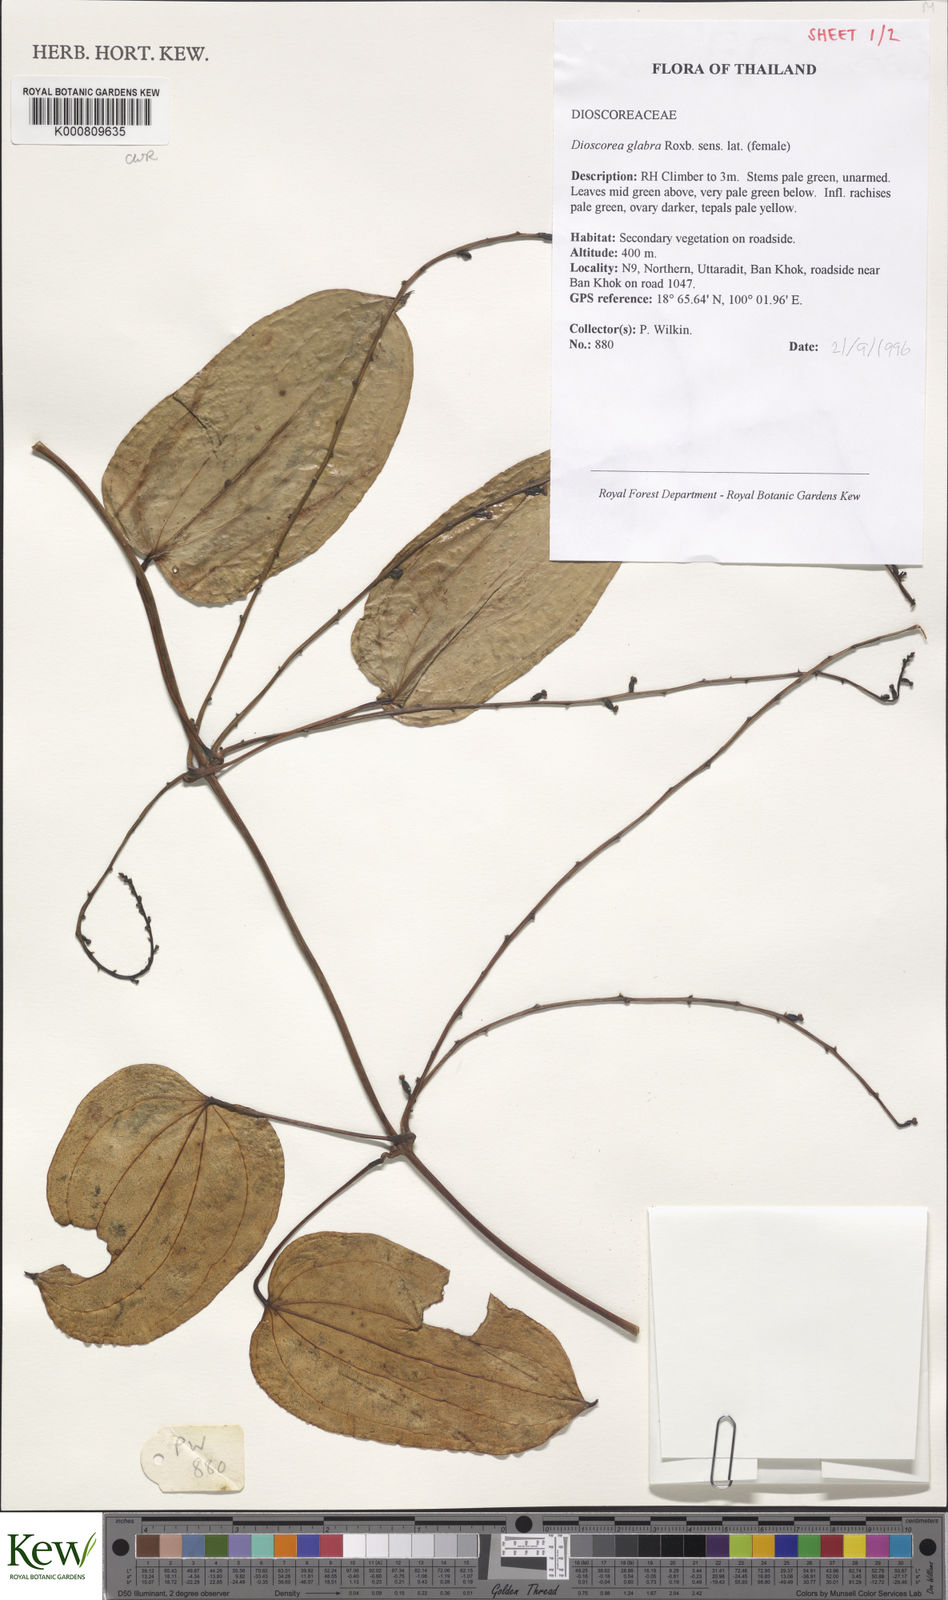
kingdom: Plantae
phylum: Tracheophyta
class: Liliopsida
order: Dioscoreales
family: Dioscoreaceae
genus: Dioscorea
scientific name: Dioscorea glabra
